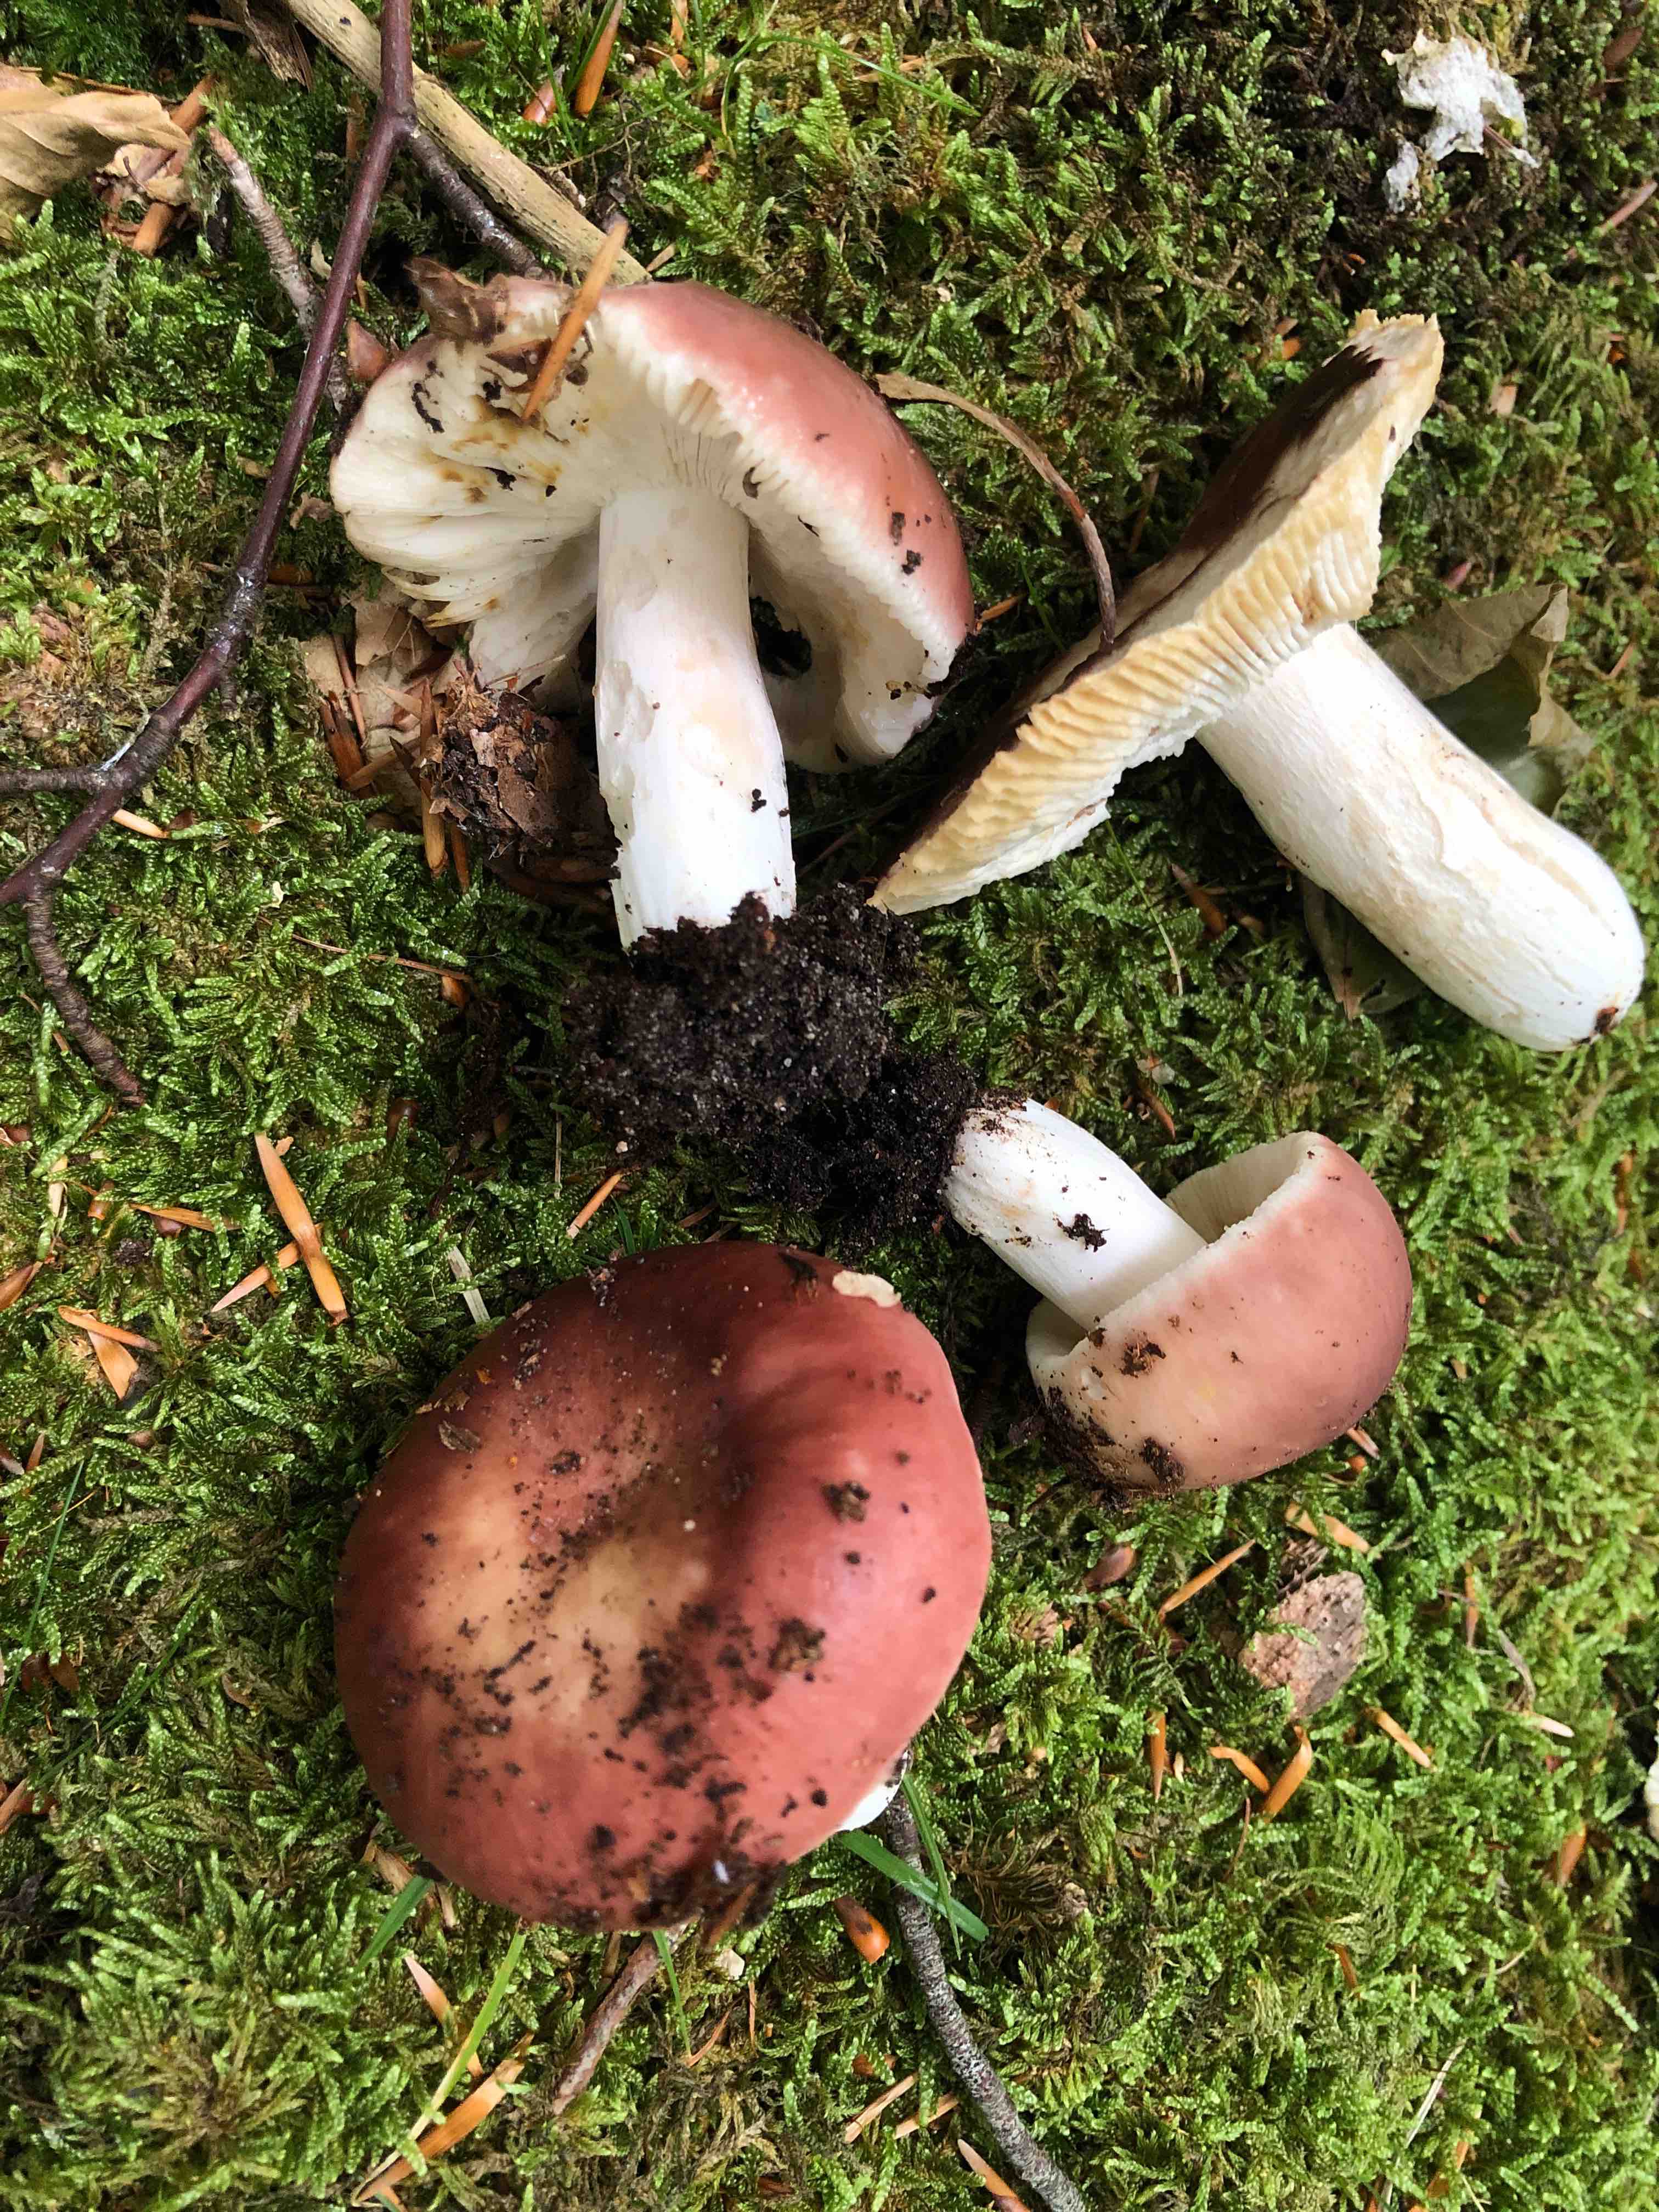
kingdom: Fungi
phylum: Basidiomycota
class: Agaricomycetes
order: Russulales
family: Russulaceae
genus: Russula
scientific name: Russula vesca
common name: spiselig skørhat
